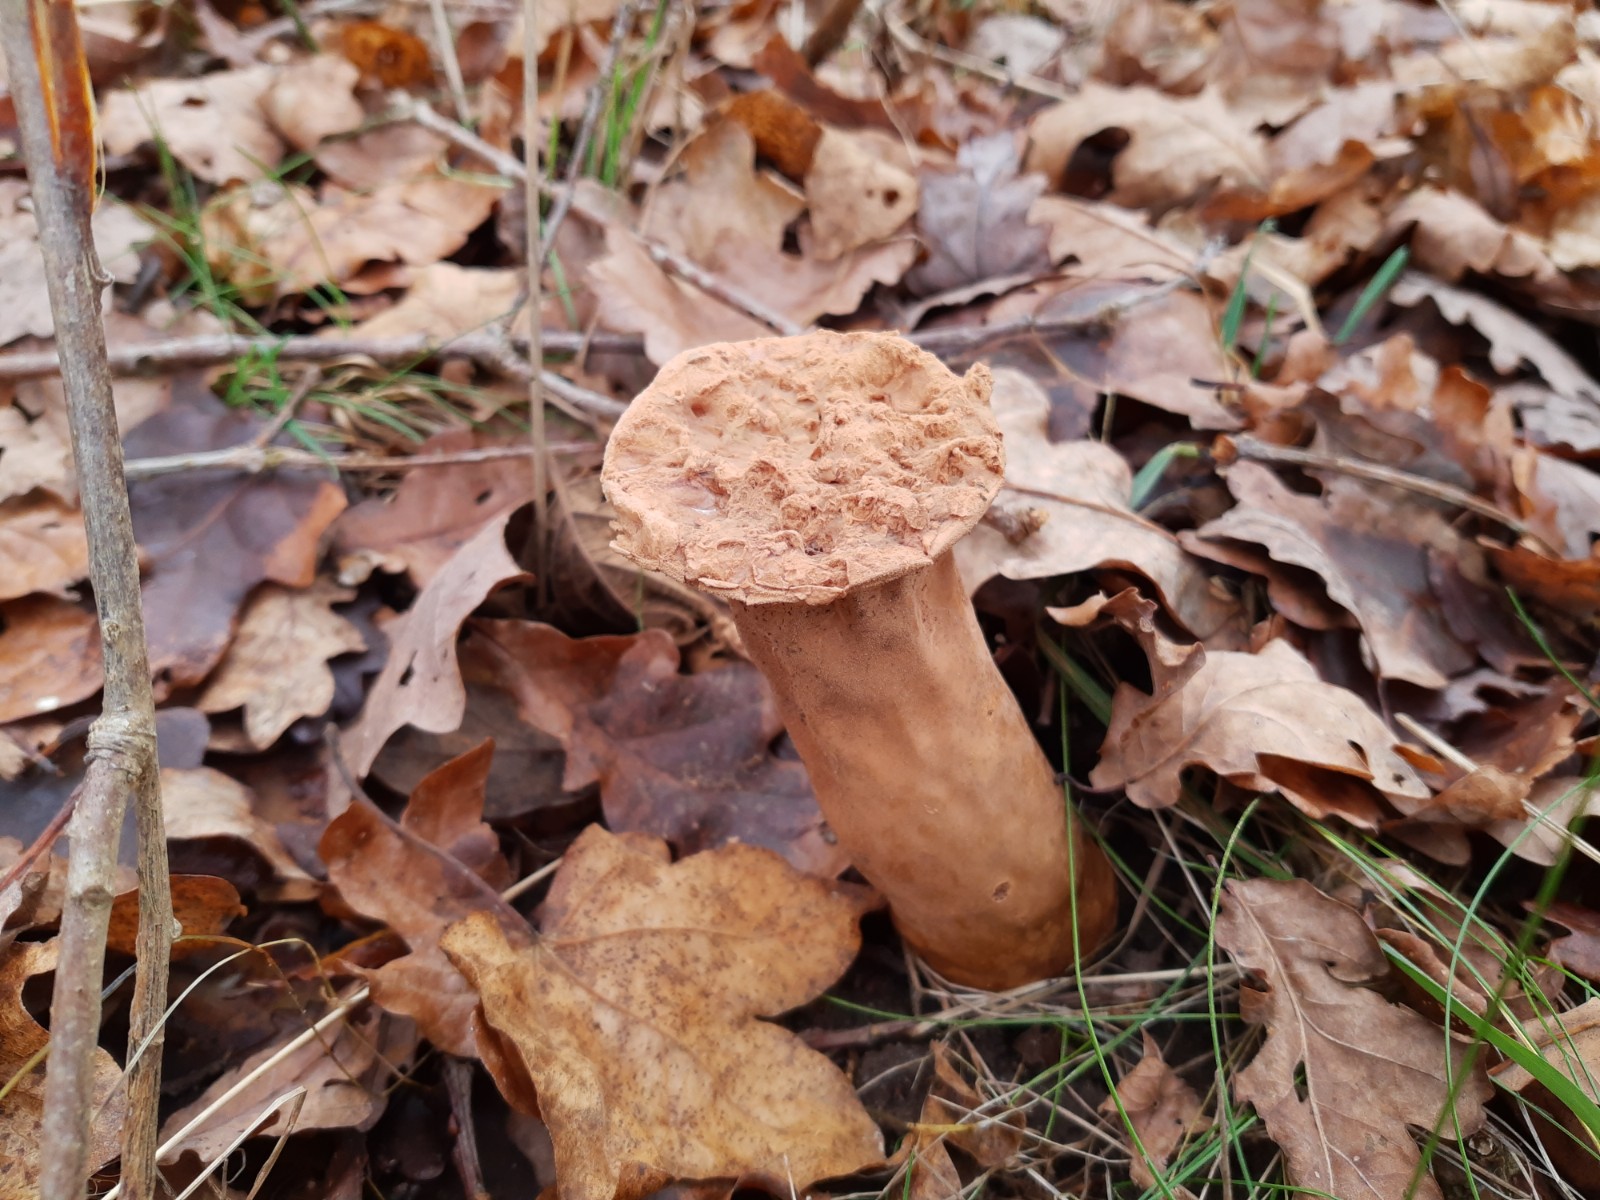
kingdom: Fungi
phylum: Basidiomycota
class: Agaricomycetes
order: Agaricales
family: Lycoperdaceae
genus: Lycoperdon
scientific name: Lycoperdon excipuliforme
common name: højstokket støvbold
